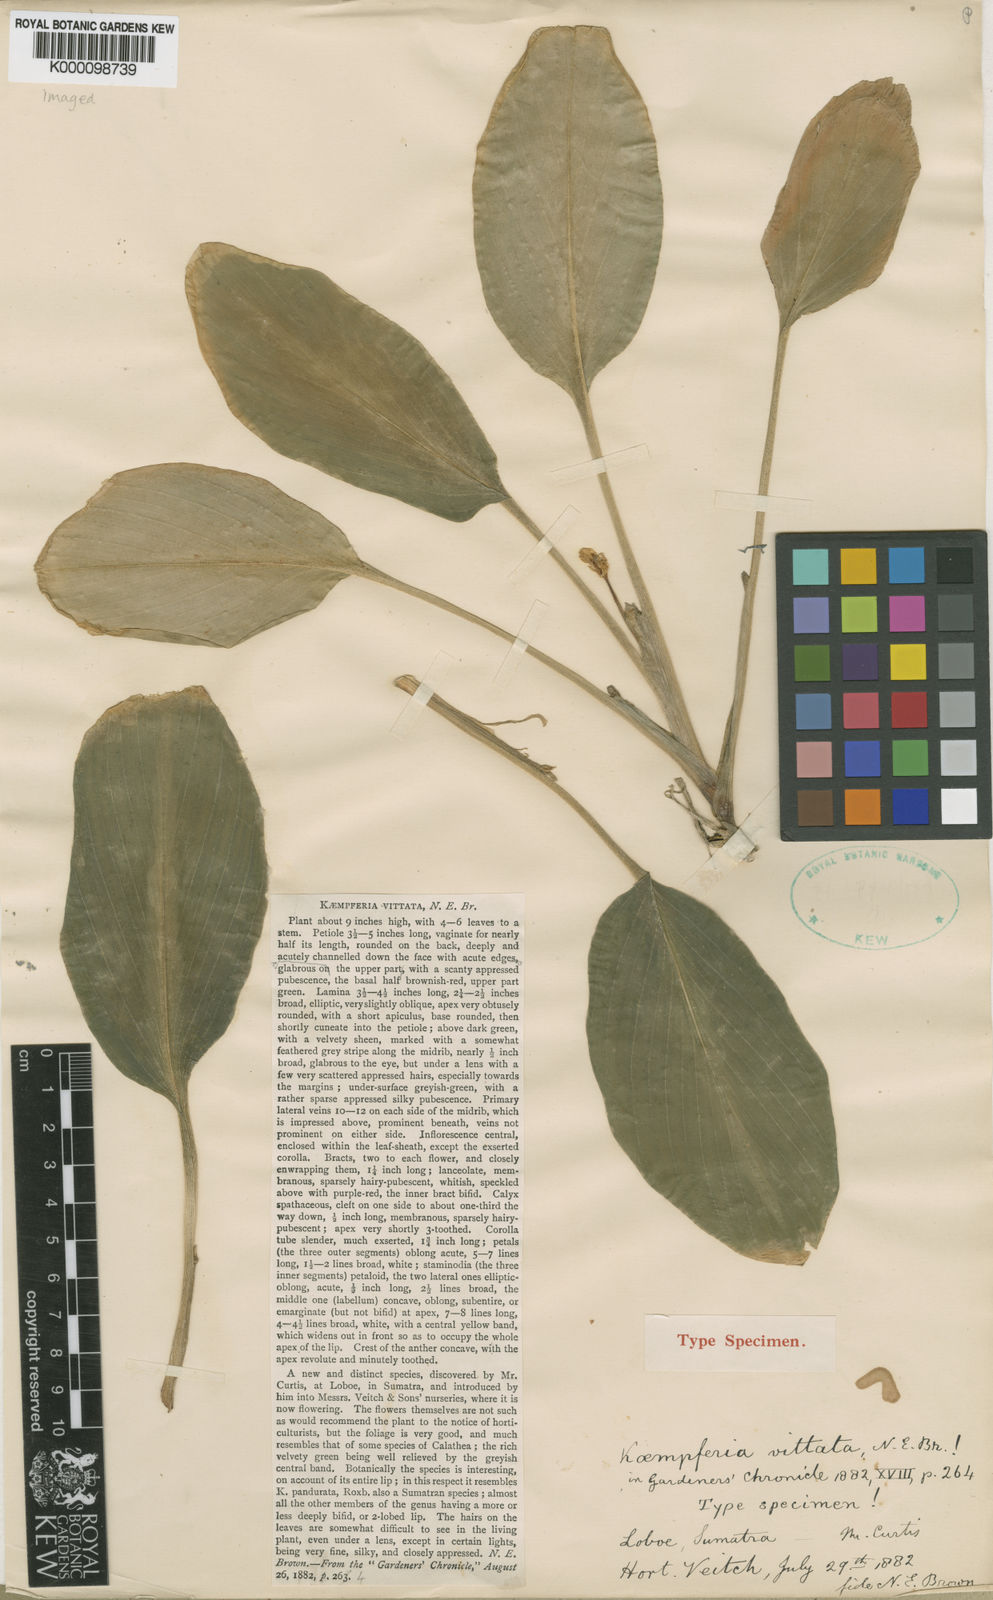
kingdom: Plantae
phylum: Tracheophyta
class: Liliopsida
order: Zingiberales
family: Zingiberaceae
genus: Boesenbergia
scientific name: Boesenbergia vittata
